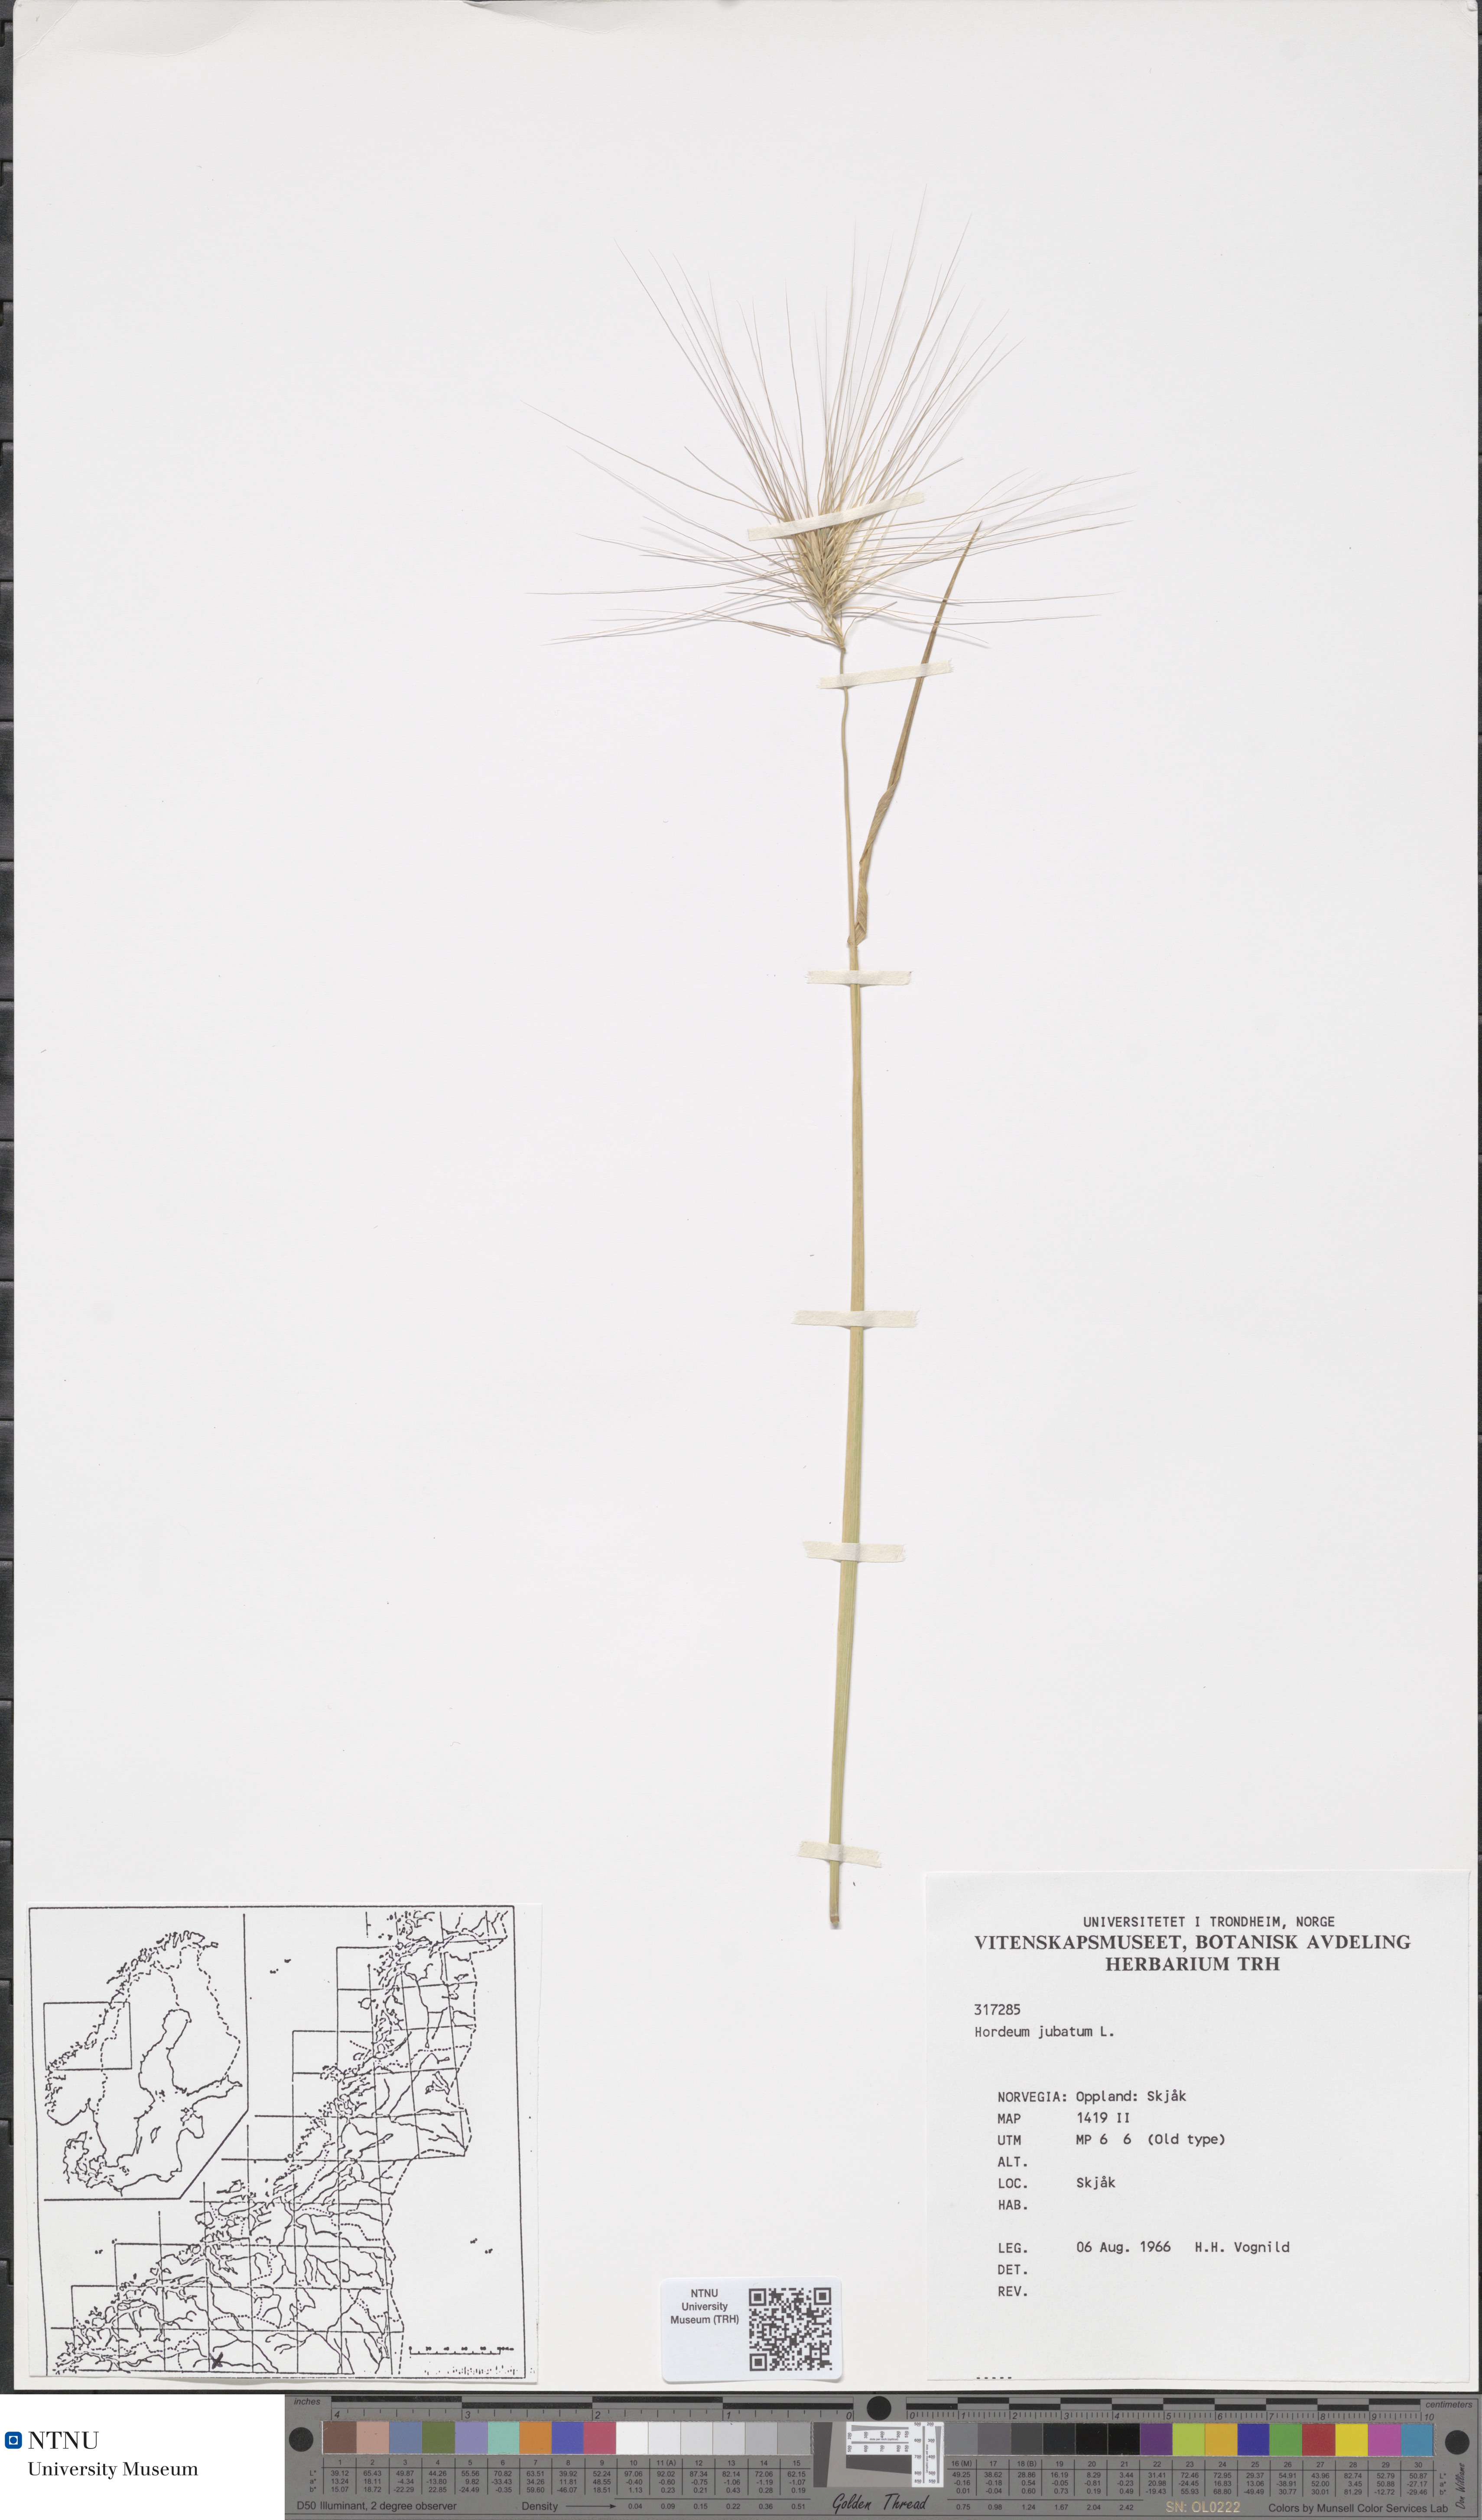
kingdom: Plantae
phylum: Tracheophyta
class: Liliopsida
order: Poales
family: Poaceae
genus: Hordeum
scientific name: Hordeum jubatum
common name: Foxtail barley
